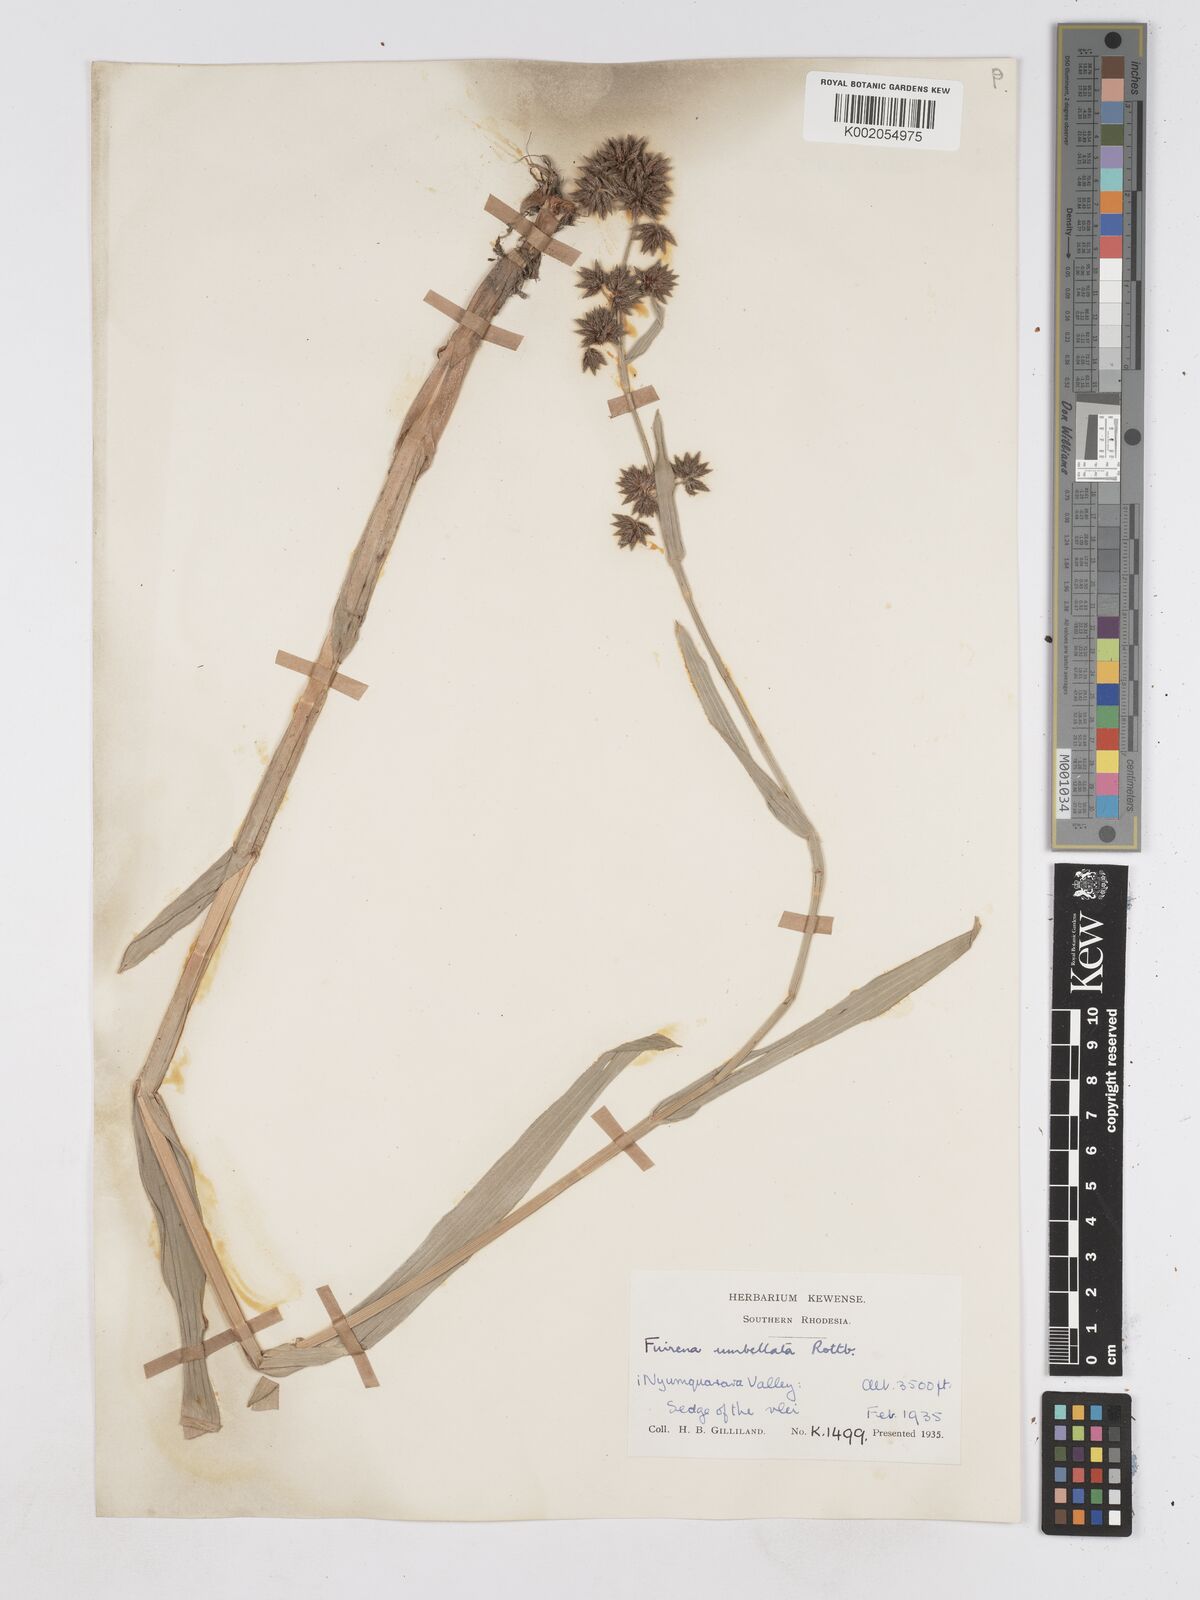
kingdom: Plantae
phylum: Tracheophyta
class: Liliopsida
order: Poales
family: Cyperaceae
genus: Fuirena
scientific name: Fuirena umbellata
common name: Yefen
